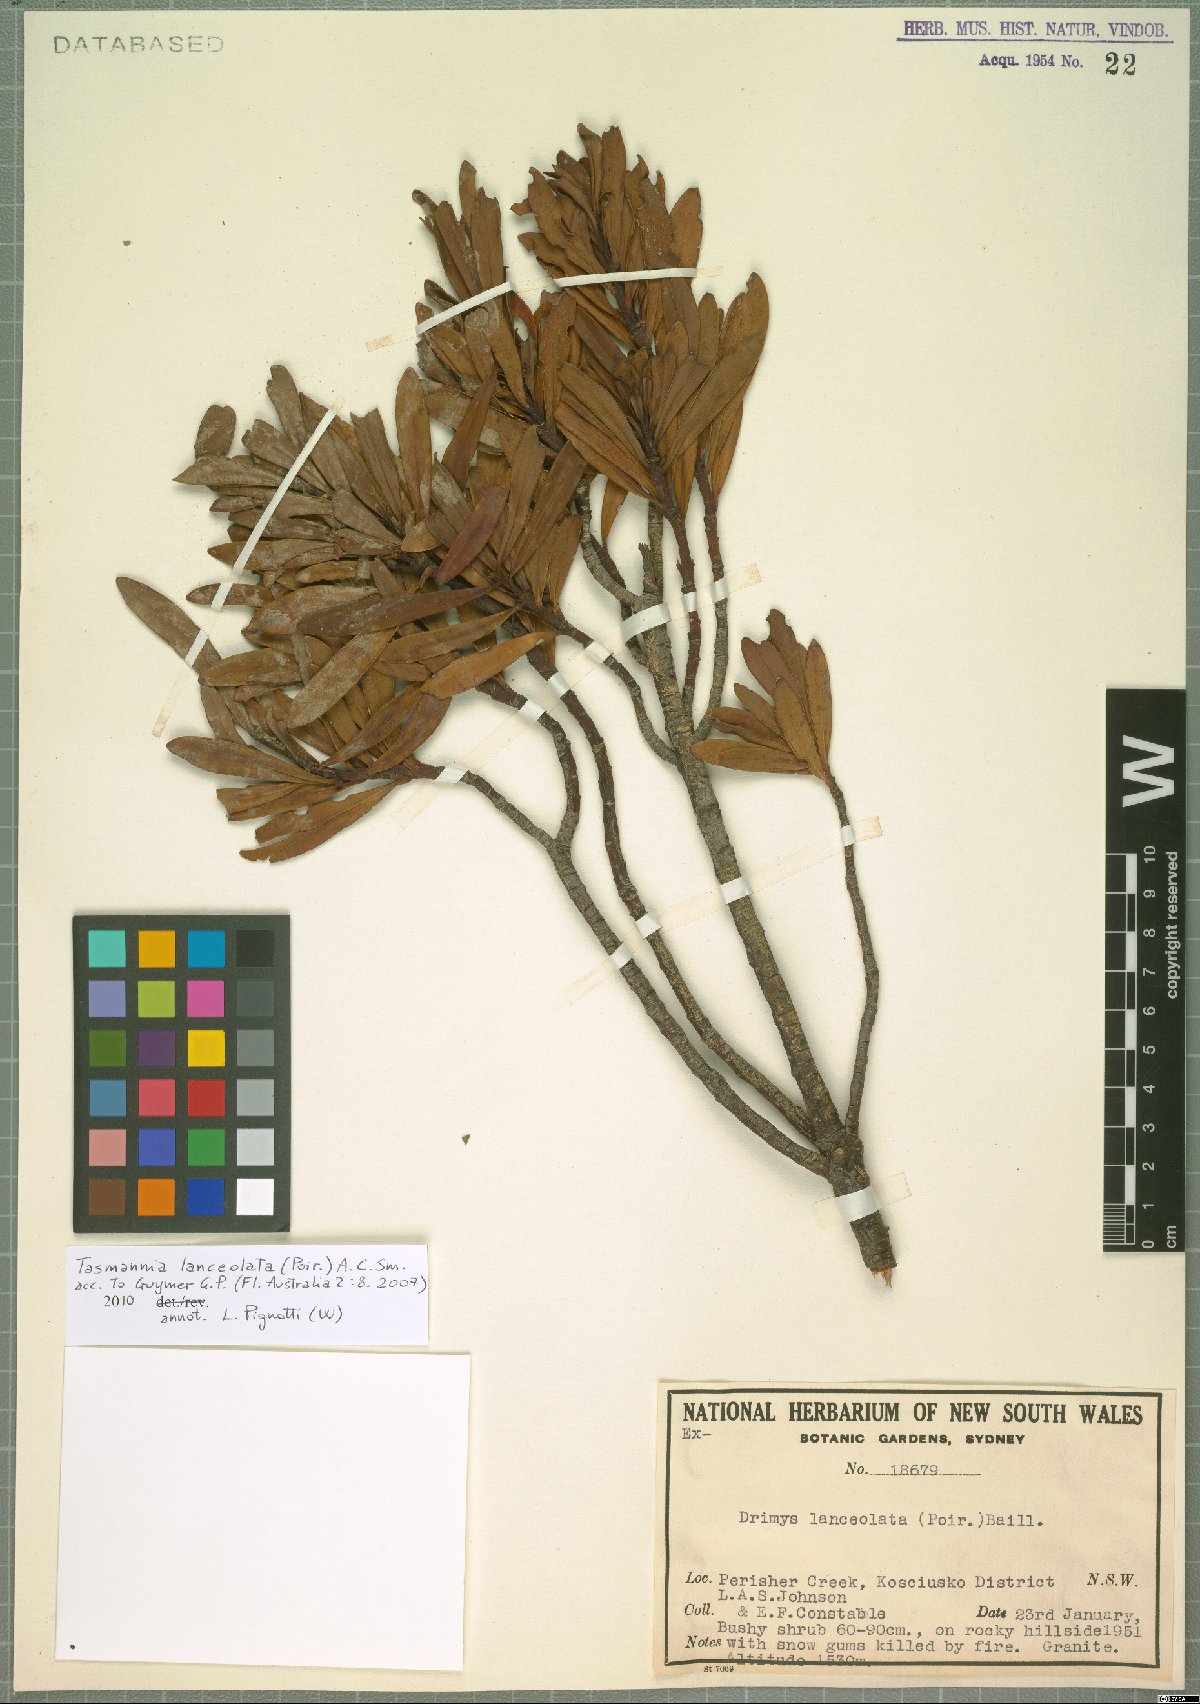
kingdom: Plantae
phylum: Tracheophyta
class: Magnoliopsida
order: Canellales
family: Winteraceae
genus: Drimys
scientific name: Drimys aromatica
